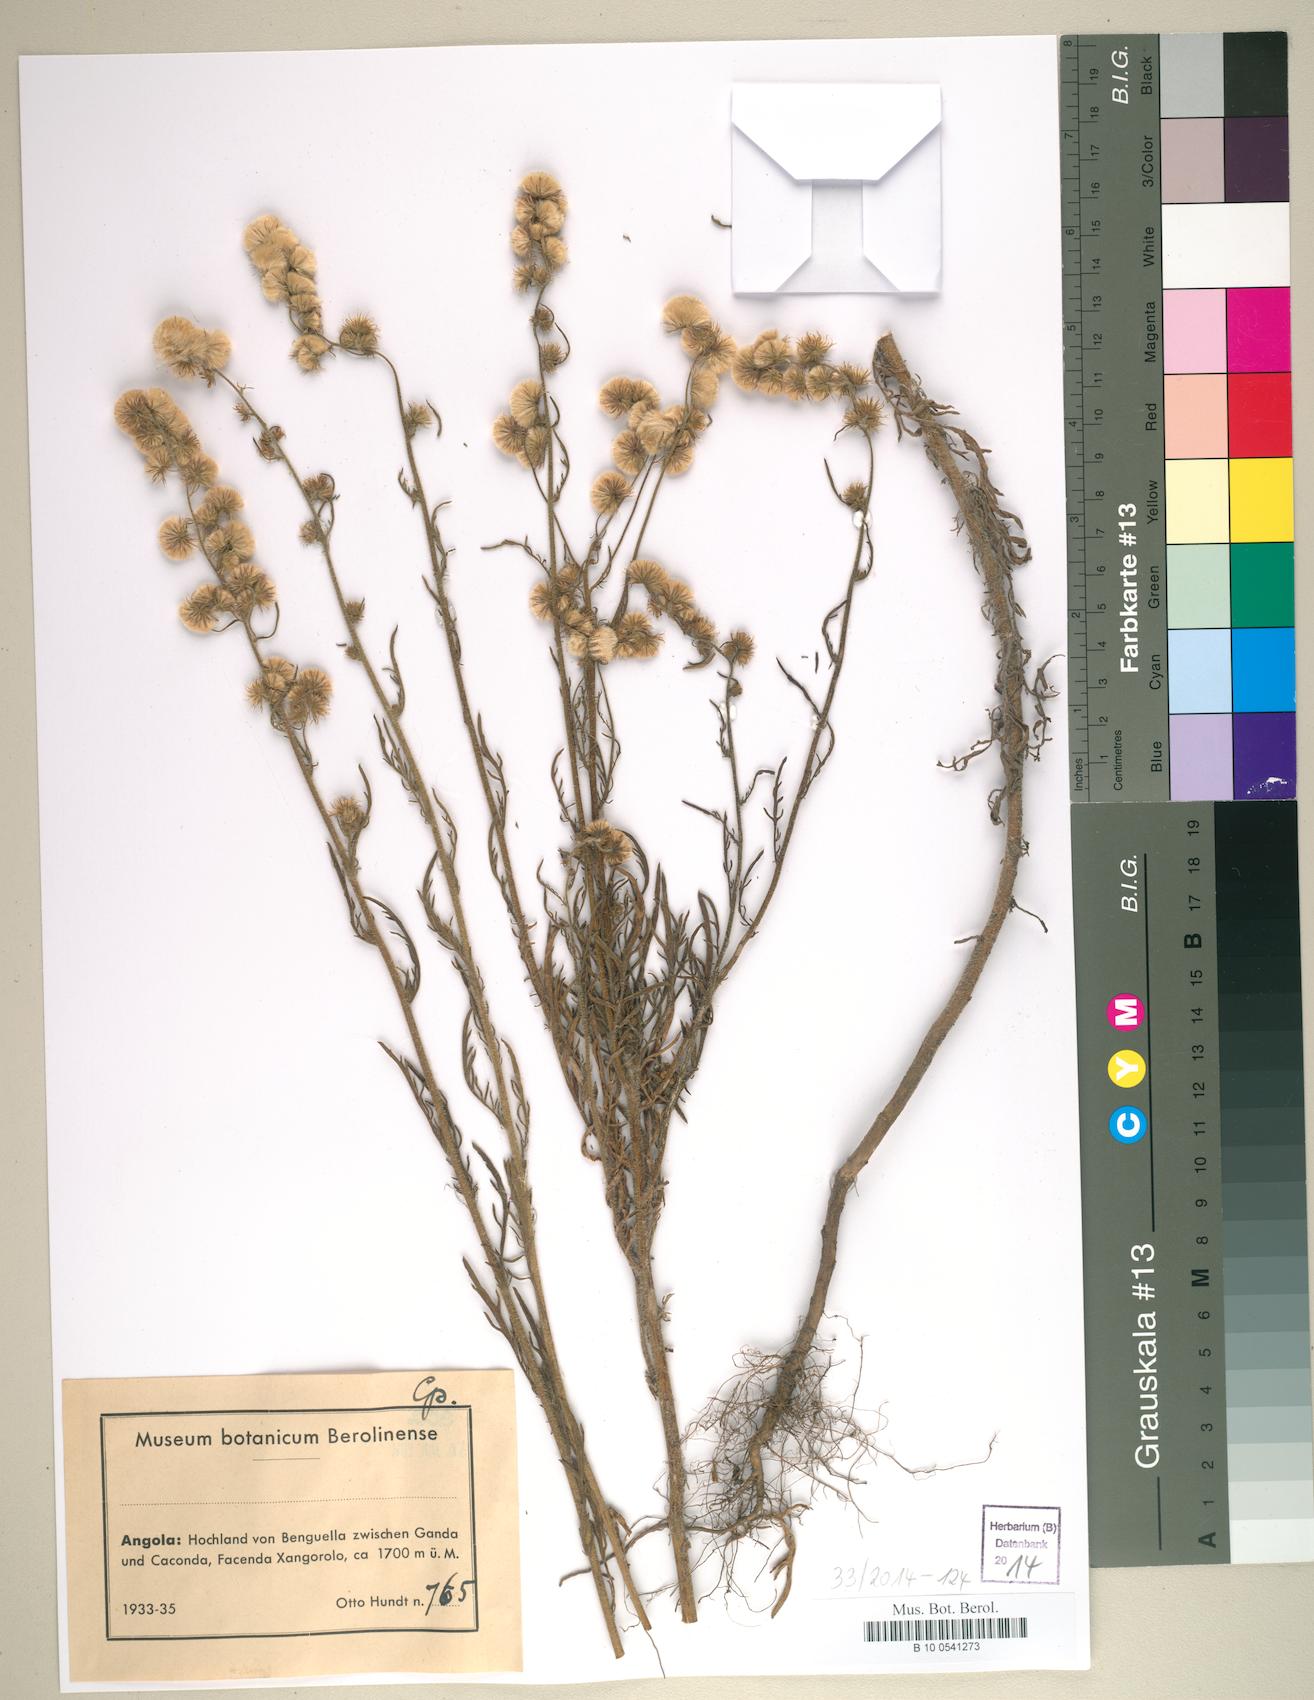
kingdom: Plantae
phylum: Tracheophyta
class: Magnoliopsida
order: Asterales
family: Asteraceae
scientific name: Asteraceae
